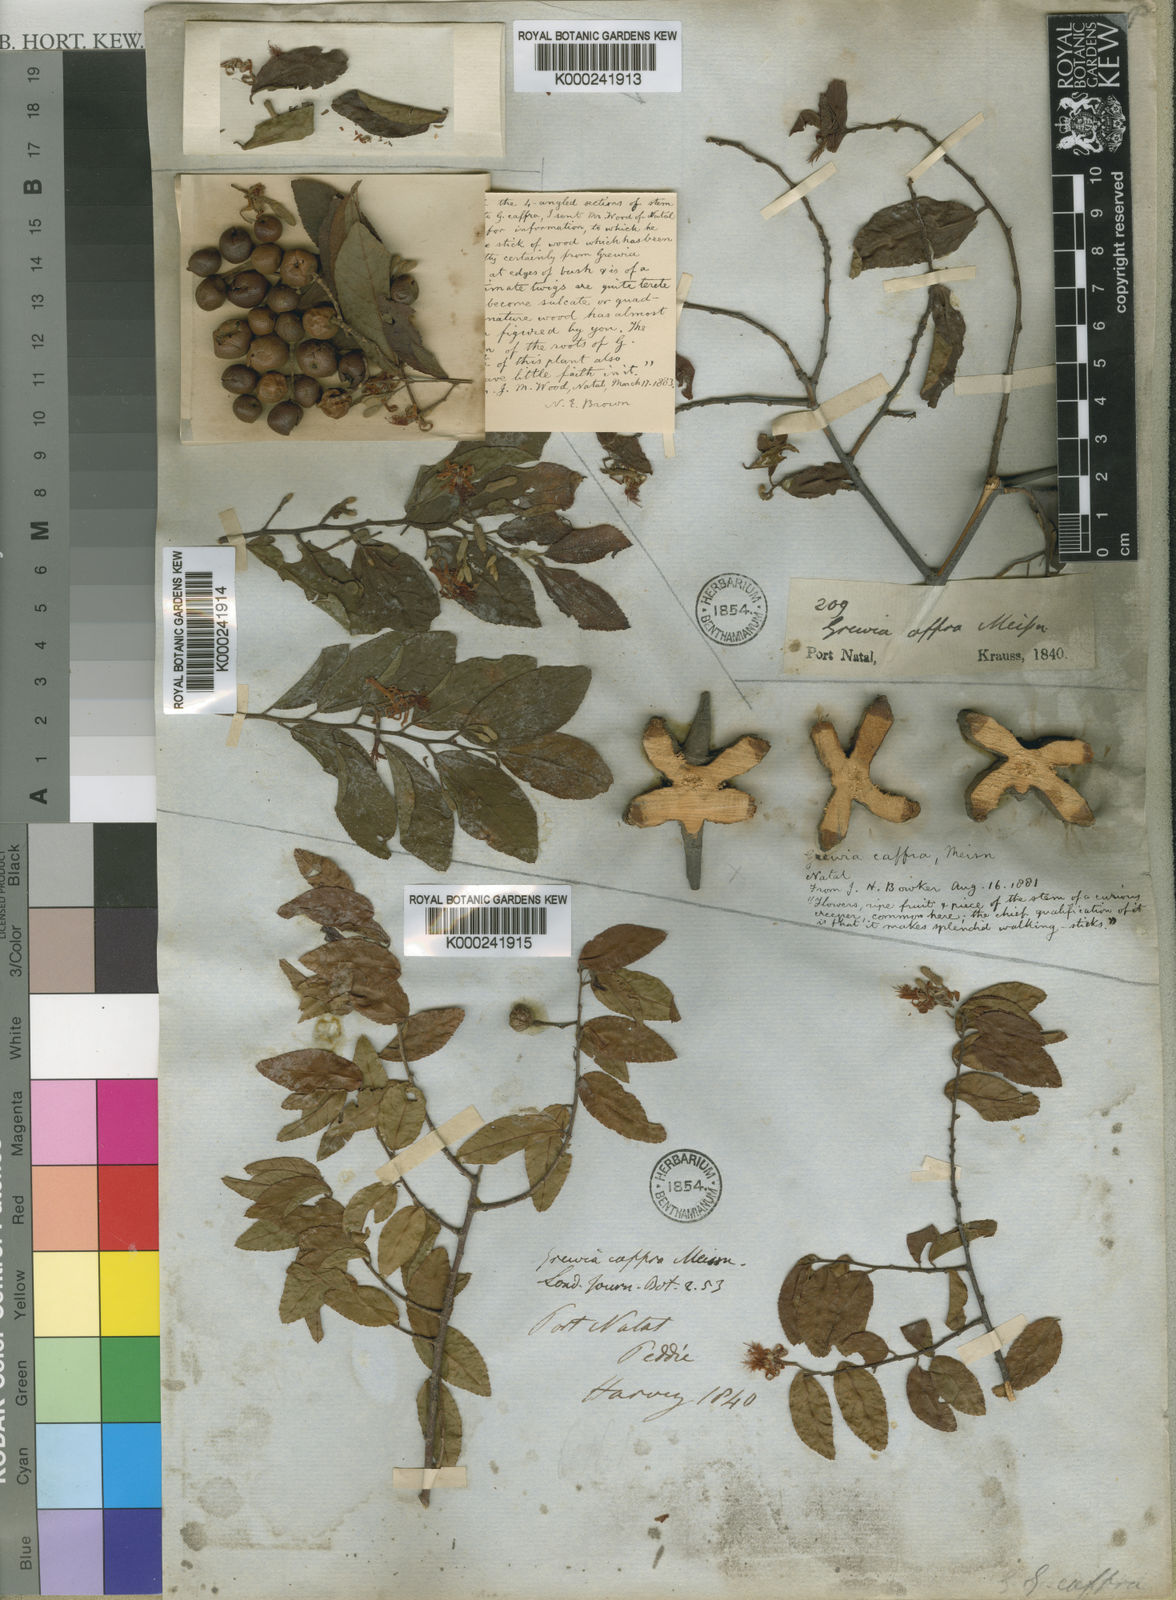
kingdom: Plantae
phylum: Tracheophyta
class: Magnoliopsida
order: Malvales
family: Malvaceae
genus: Grewia
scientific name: Grewia caffra
